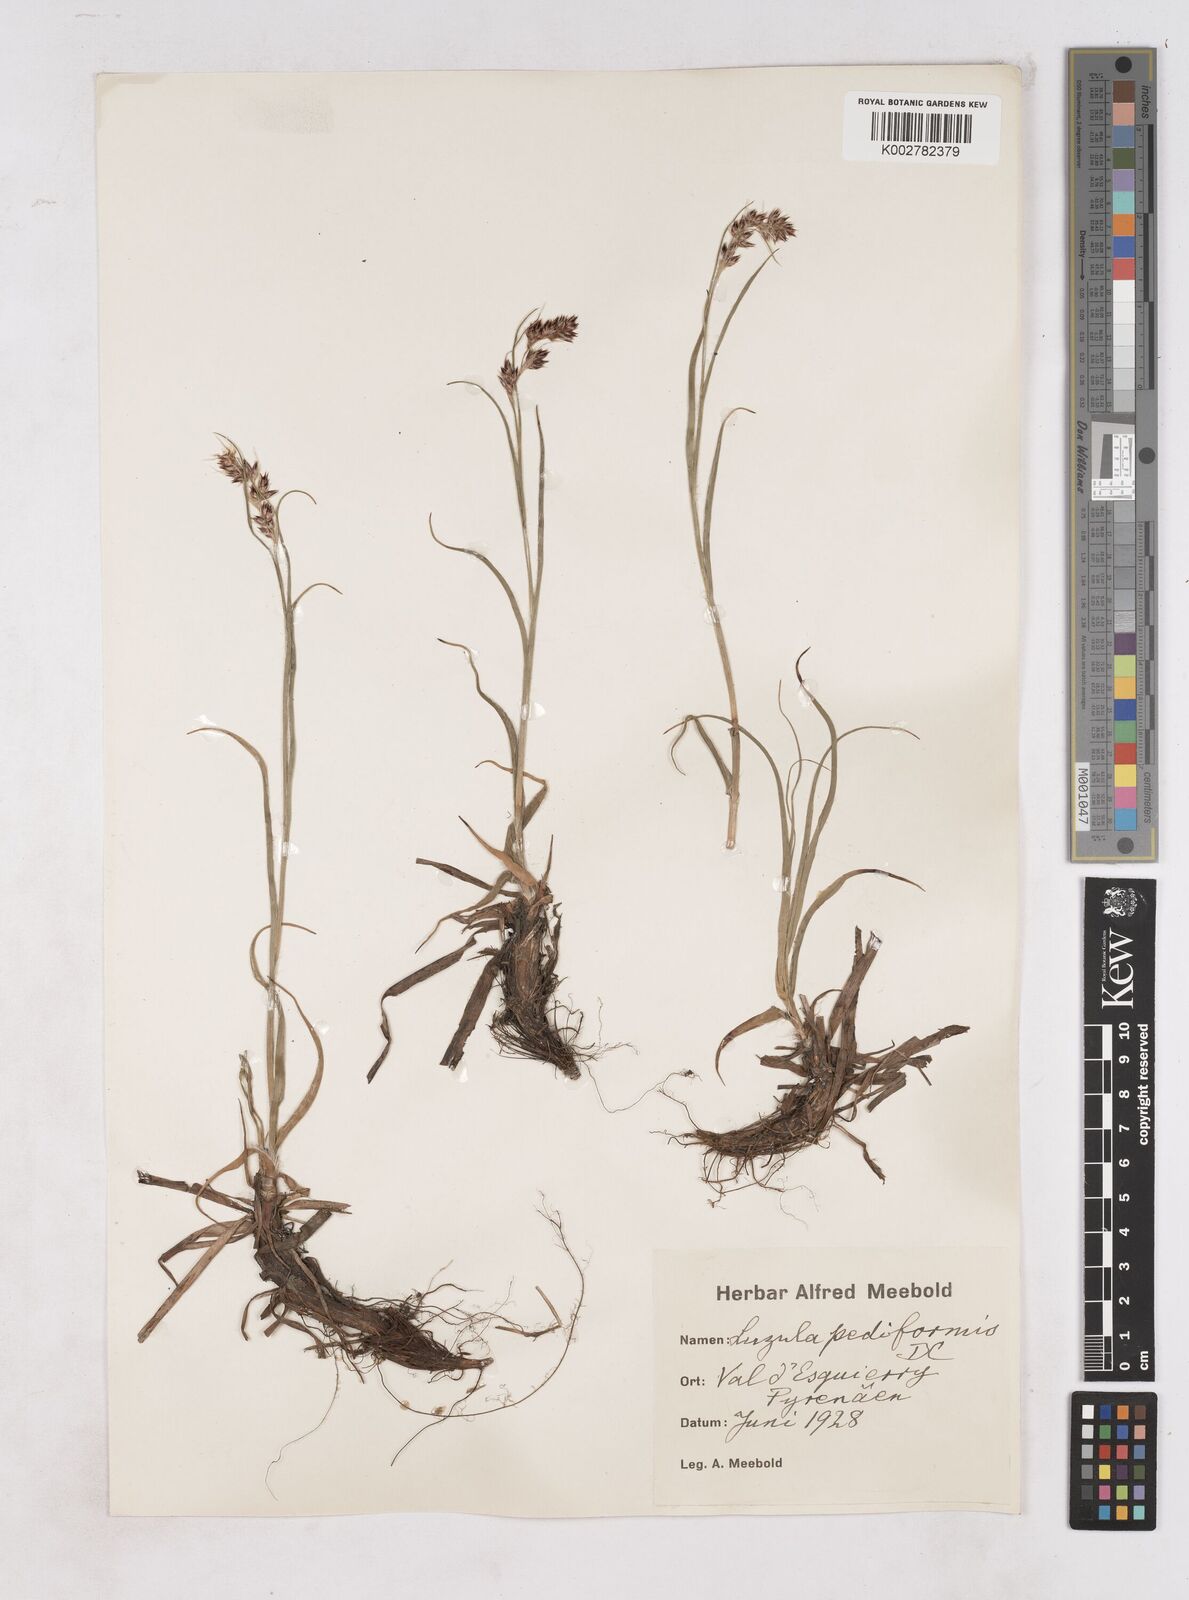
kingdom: Plantae
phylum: Tracheophyta
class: Liliopsida
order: Poales
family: Juncaceae
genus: Luzula
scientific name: Luzula pediformis
